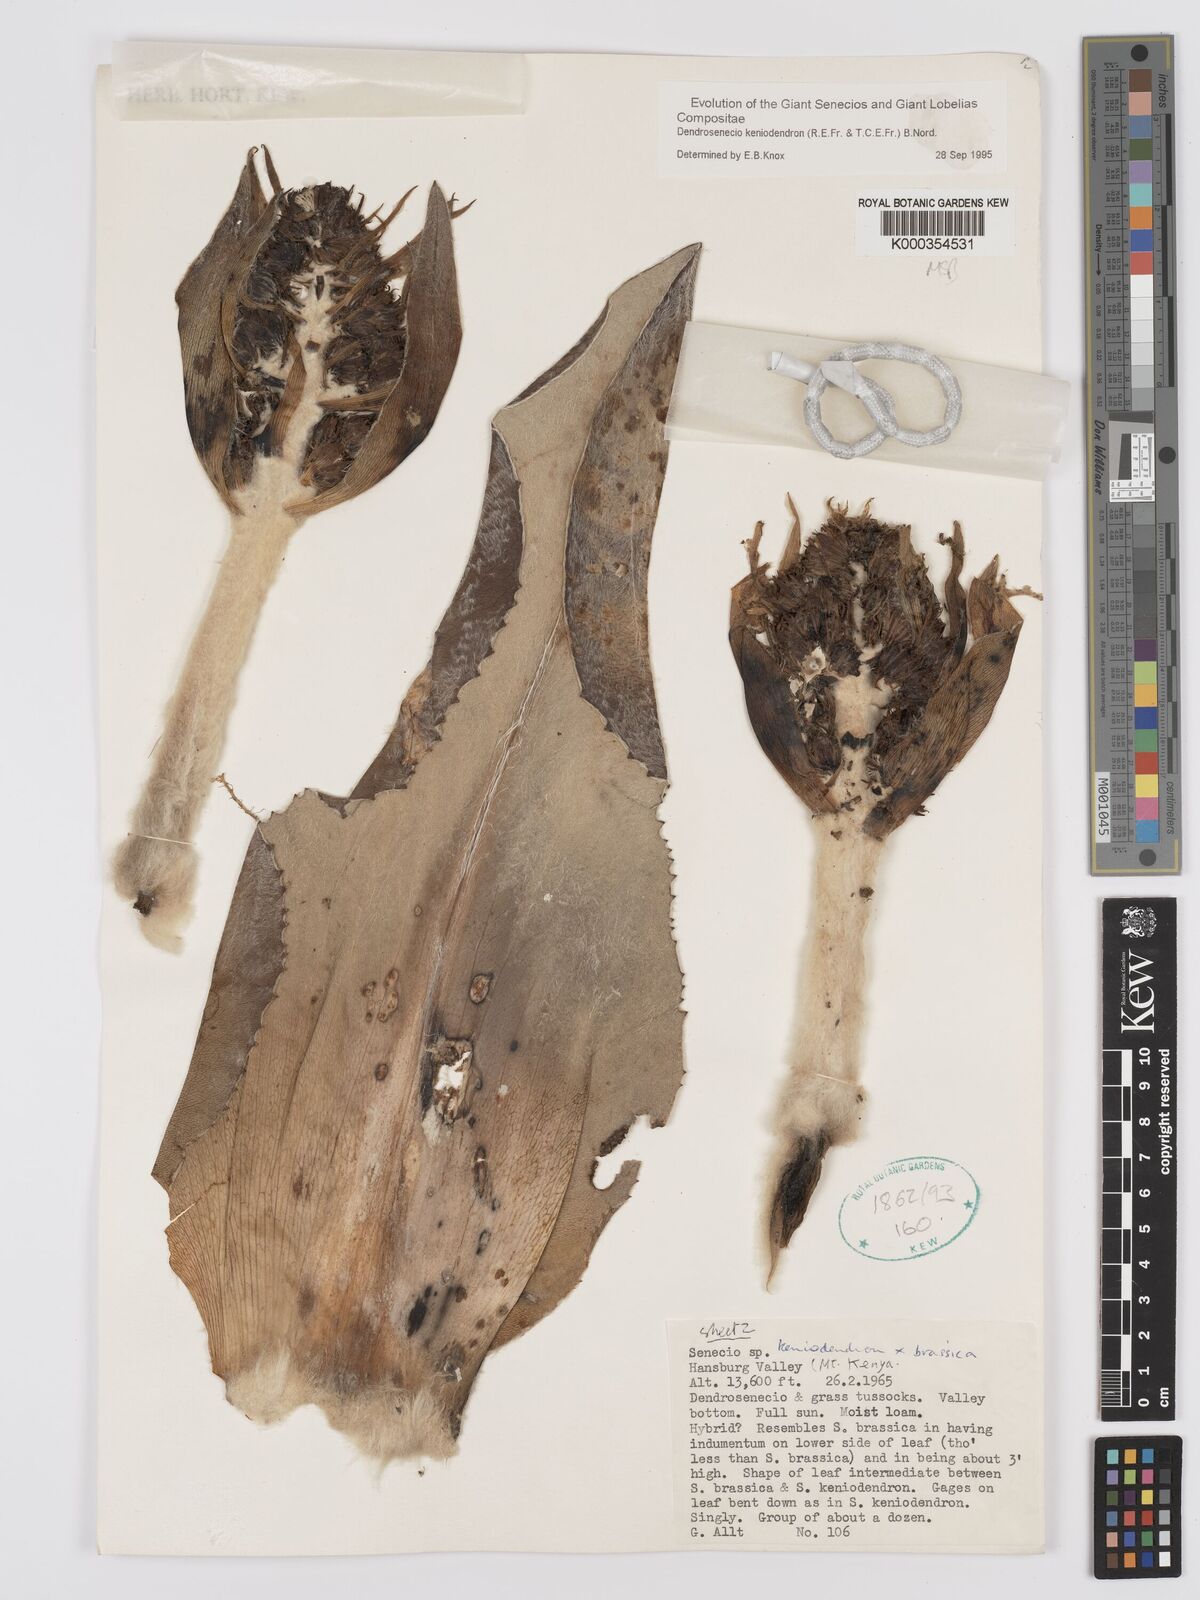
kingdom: Plantae
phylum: Tracheophyta
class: Magnoliopsida
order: Asterales
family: Asteraceae
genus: Dendrosenecio
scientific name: Dendrosenecio keniodendron
